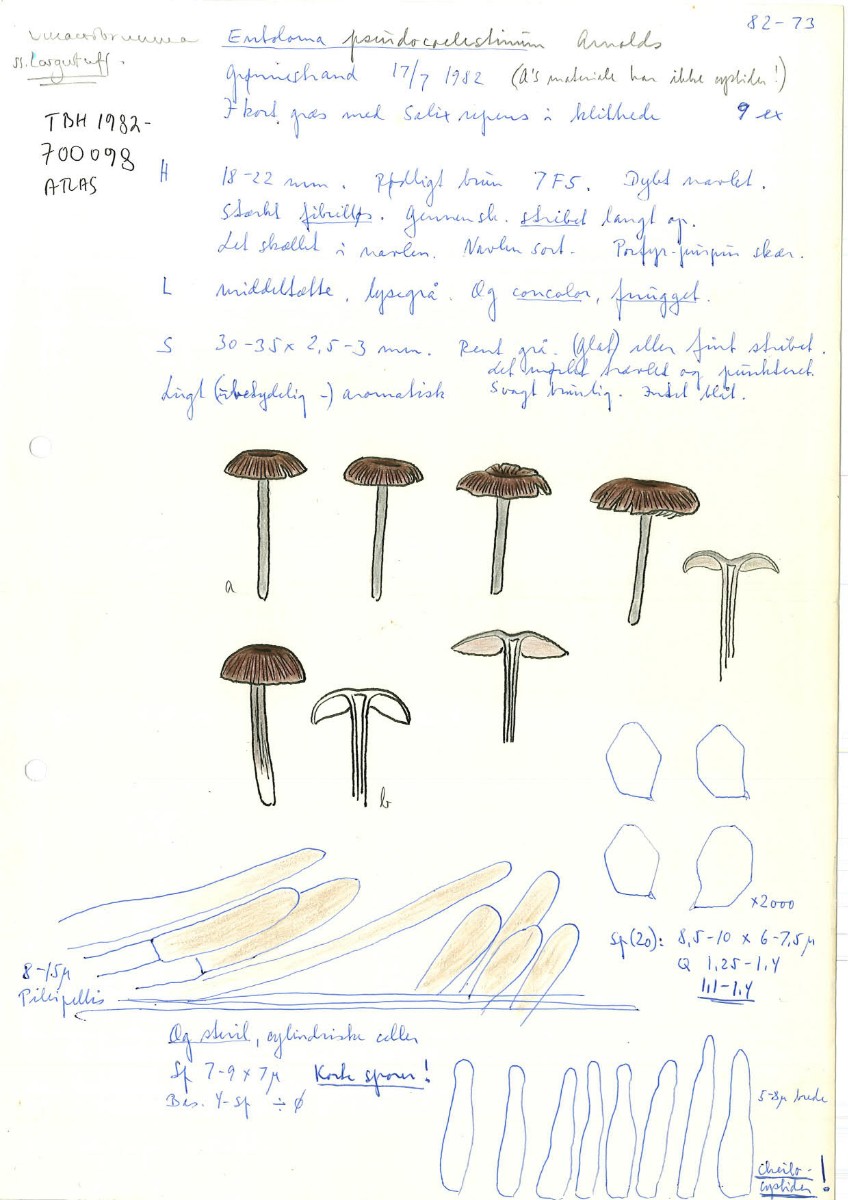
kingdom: Fungi
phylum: Basidiomycota
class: Agaricomycetes
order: Agaricales
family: Entolomataceae
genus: Entoloma
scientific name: Entoloma
